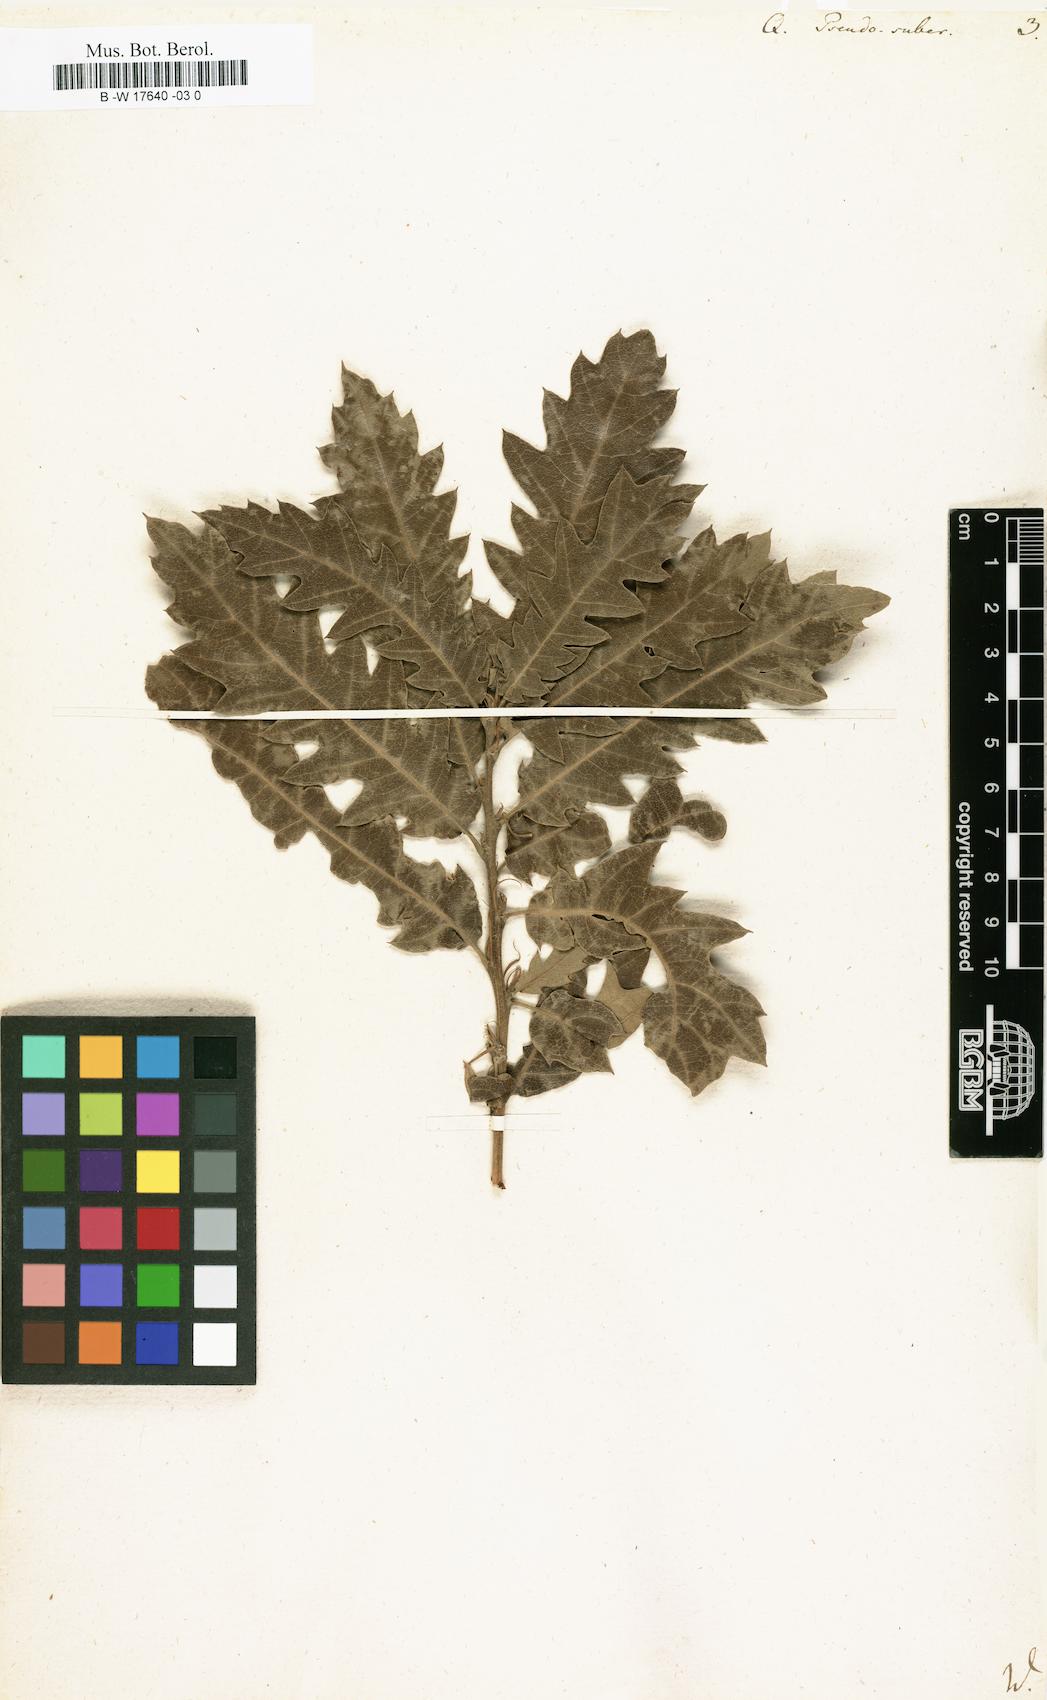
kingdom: Plantae
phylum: Tracheophyta
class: Magnoliopsida
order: Fagales
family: Fagaceae
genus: Quercus
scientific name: Quercus
